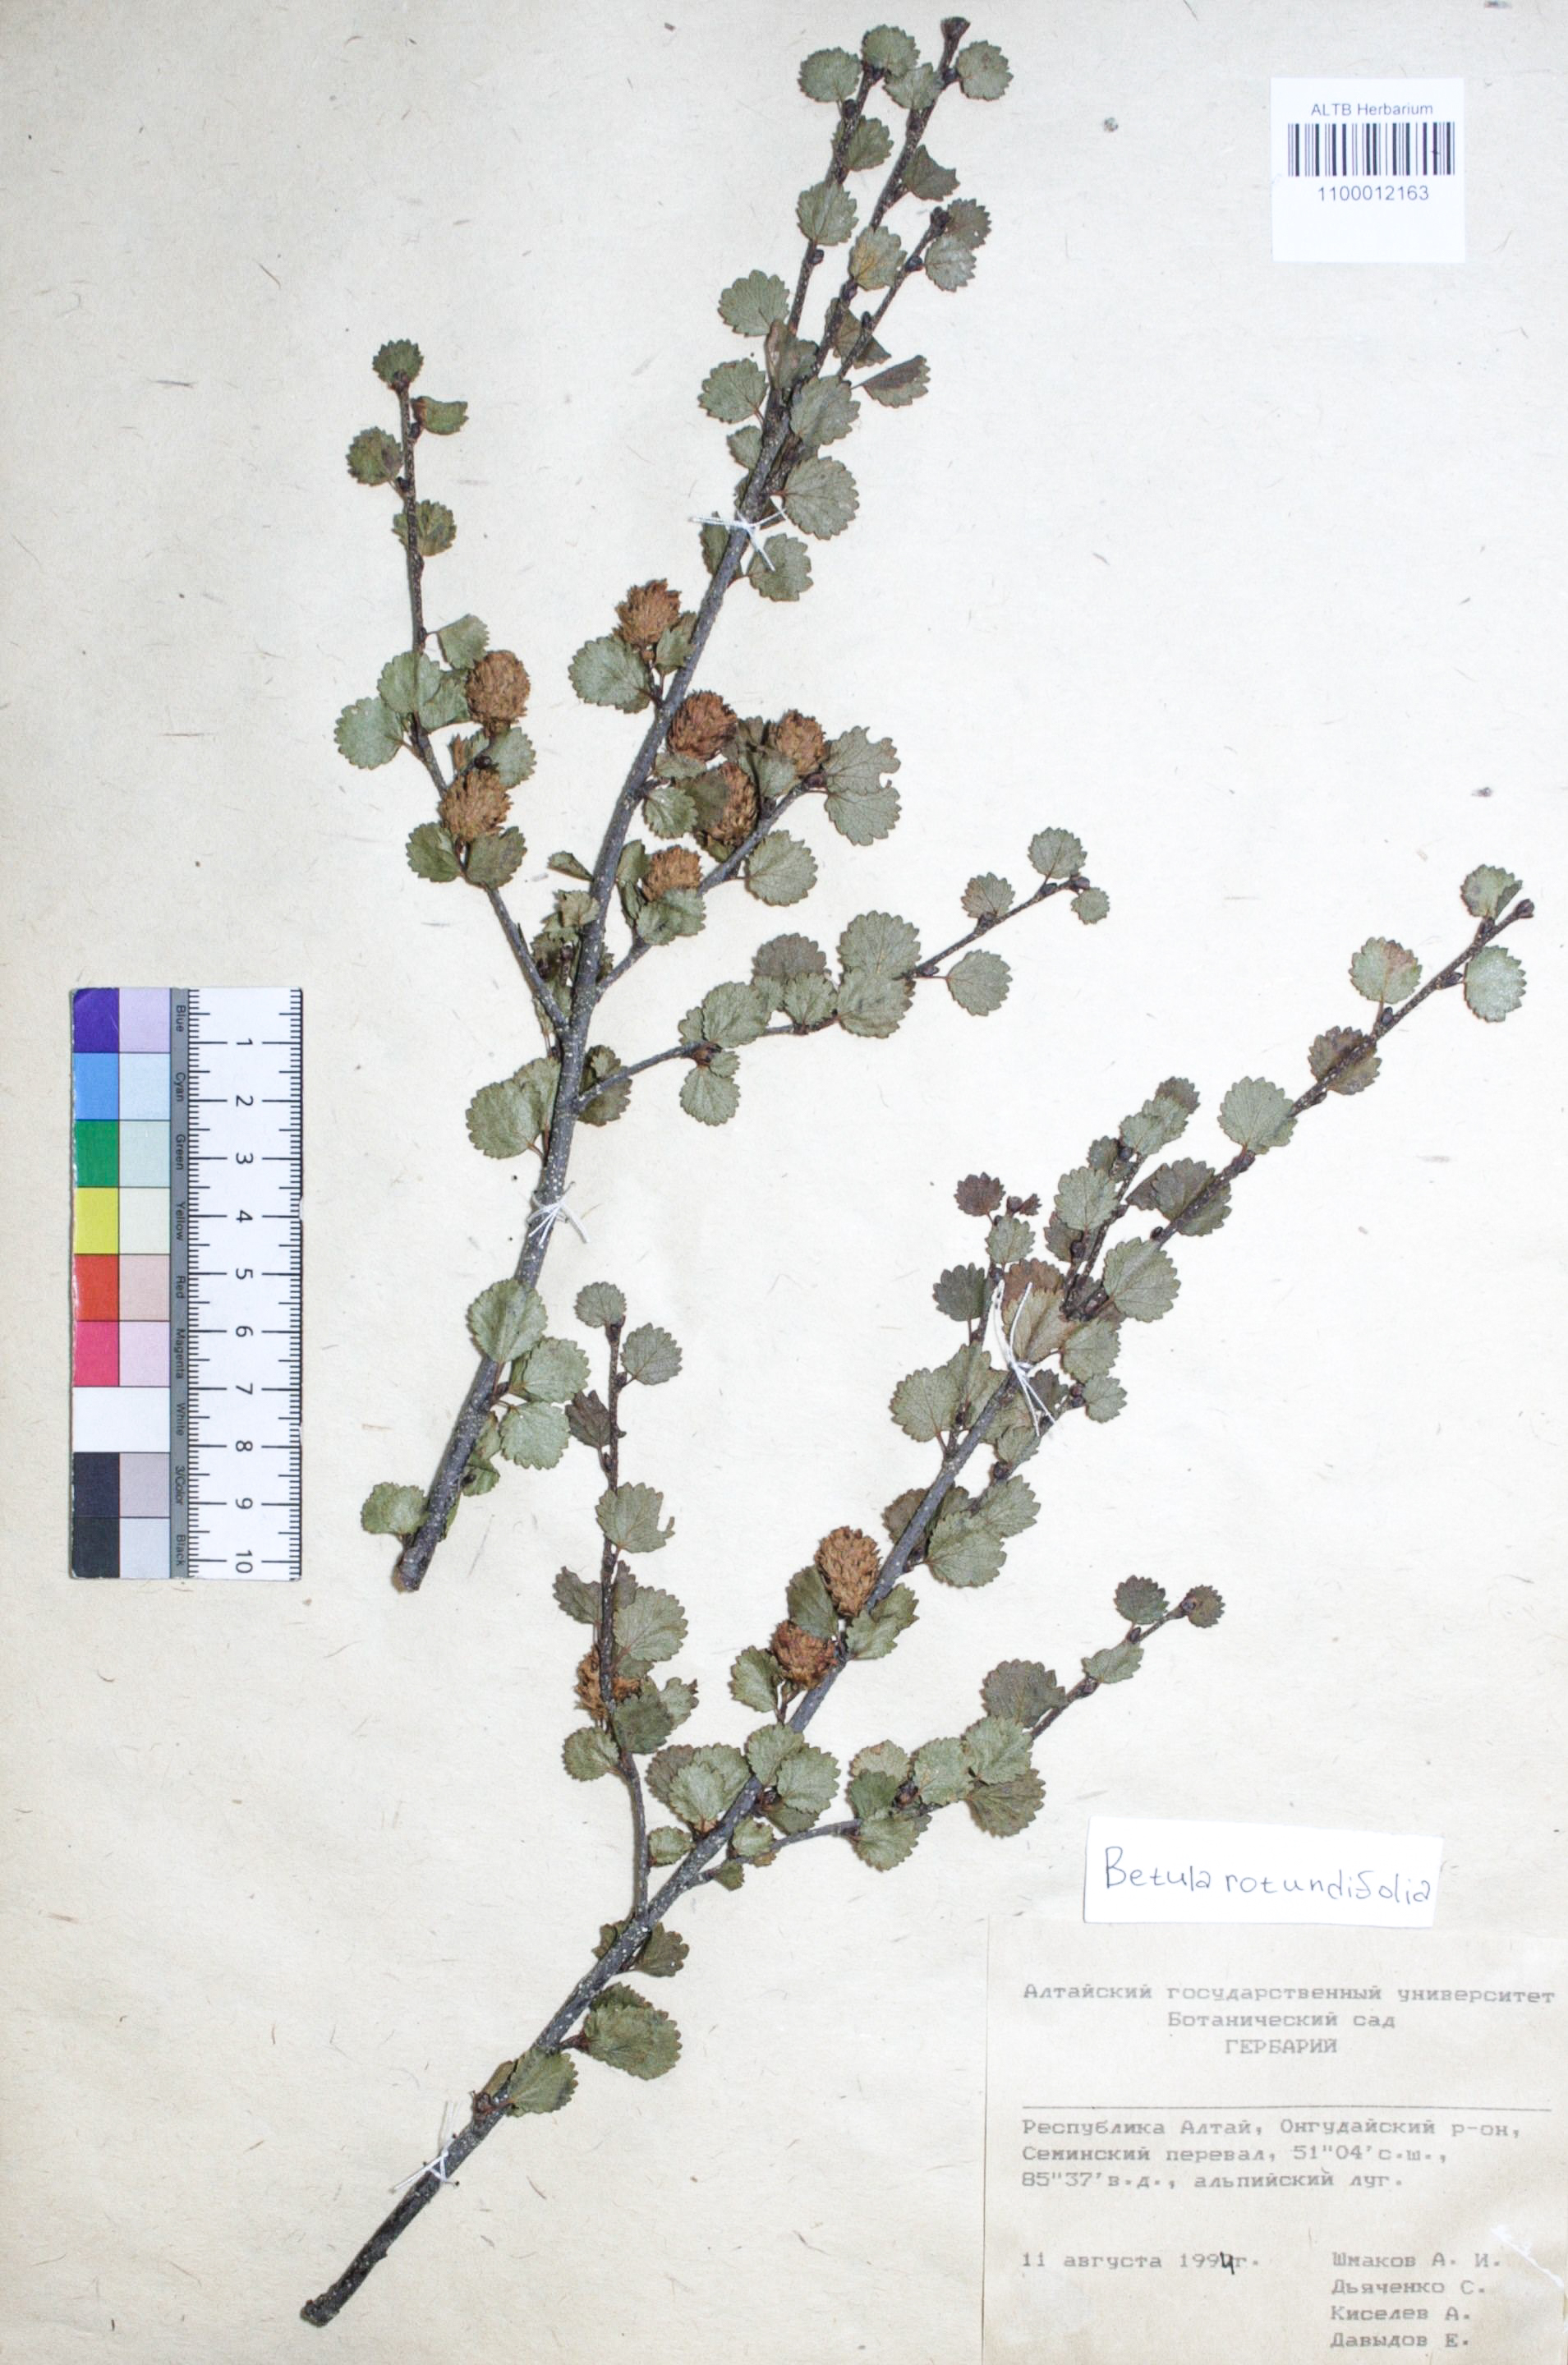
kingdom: Plantae
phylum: Tracheophyta
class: Magnoliopsida
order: Fagales
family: Betulaceae
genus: Betula
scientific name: Betula glandulosa
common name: Dwarf birch
